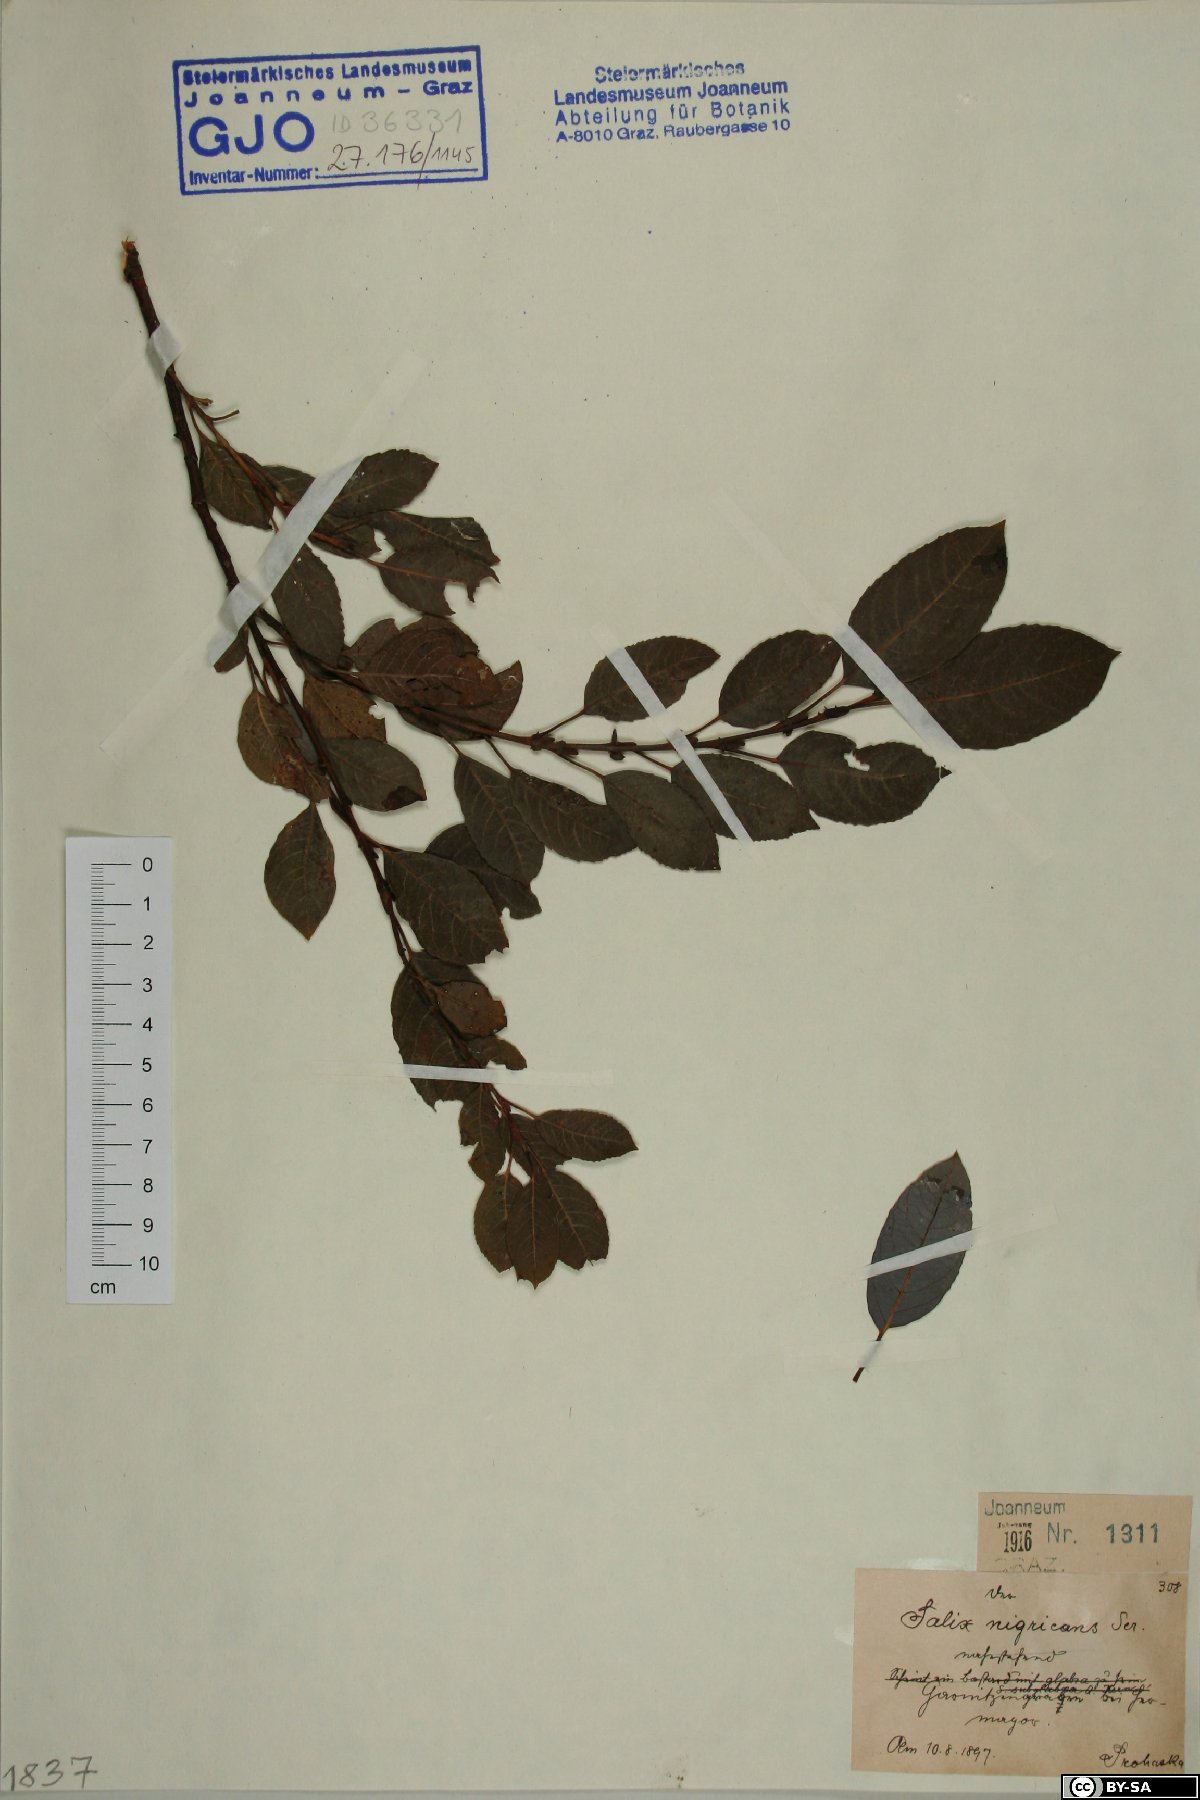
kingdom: Plantae
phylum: Tracheophyta
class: Magnoliopsida
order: Malpighiales
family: Salicaceae
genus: Salix
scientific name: Salix myrsinifolia
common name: Dark-leaved willow
